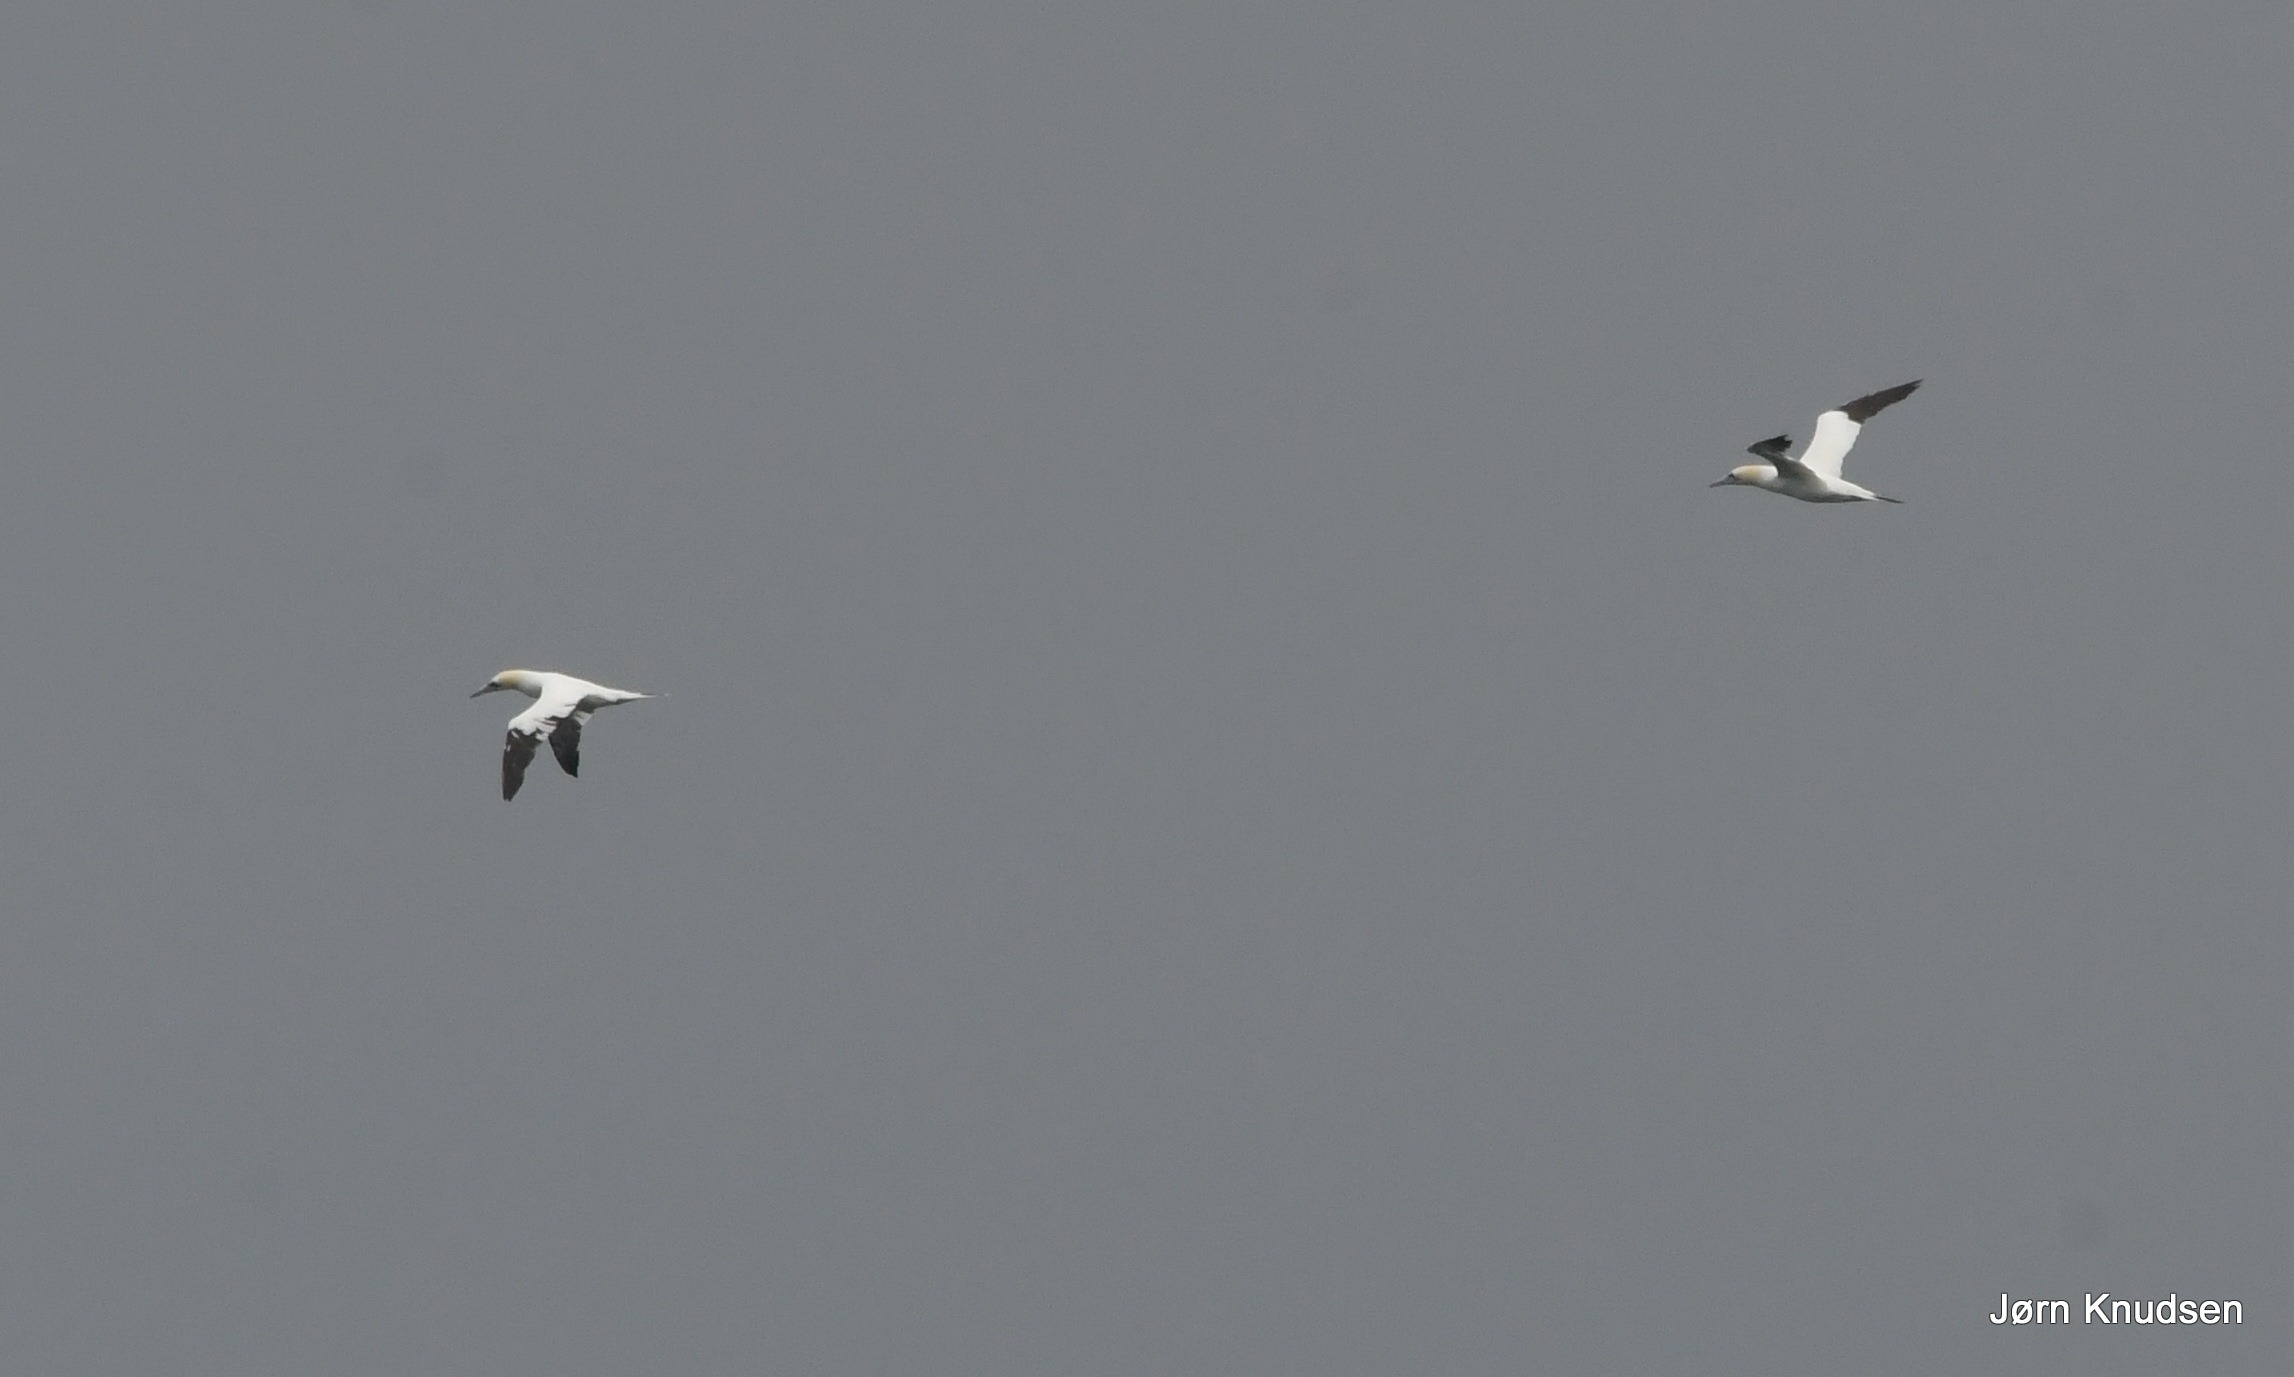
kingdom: Animalia
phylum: Chordata
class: Aves
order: Suliformes
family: Sulidae
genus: Morus
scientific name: Morus bassanus
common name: Sule
